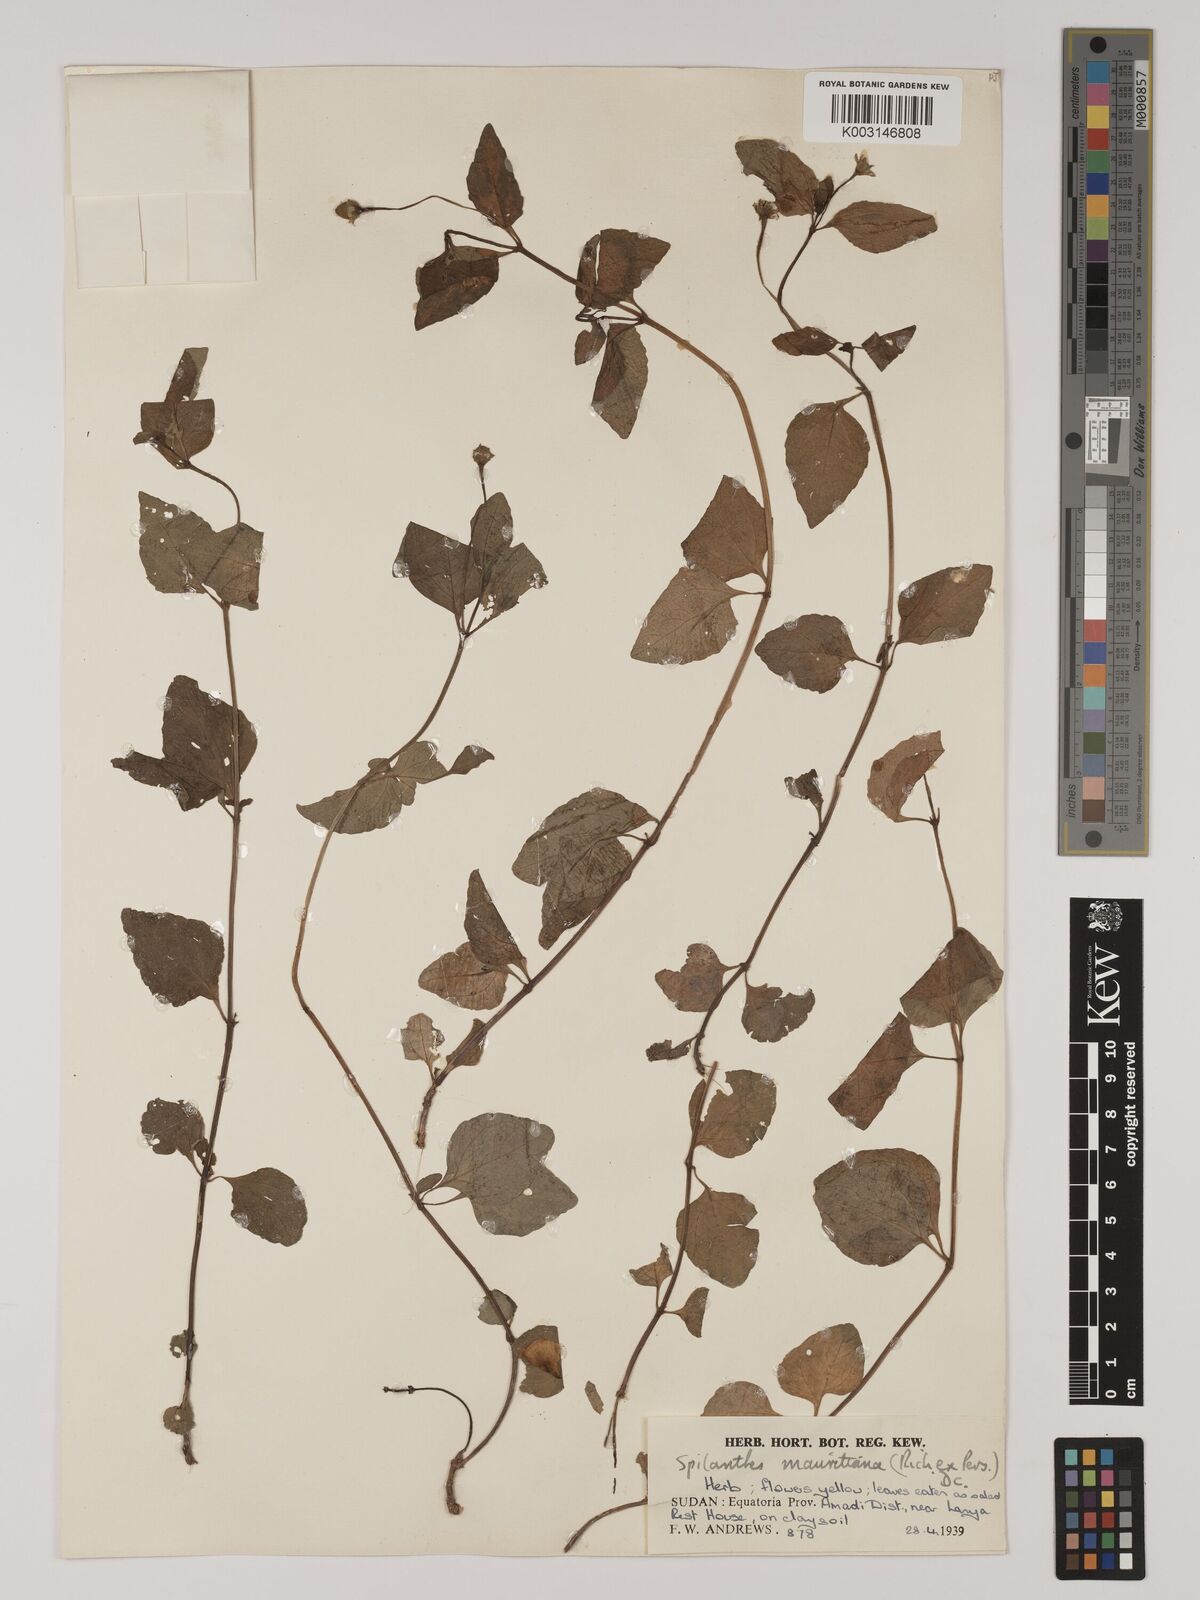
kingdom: Plantae
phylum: Tracheophyta
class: Magnoliopsida
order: Asterales
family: Asteraceae
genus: Blainvillea
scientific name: Blainvillea acmella
